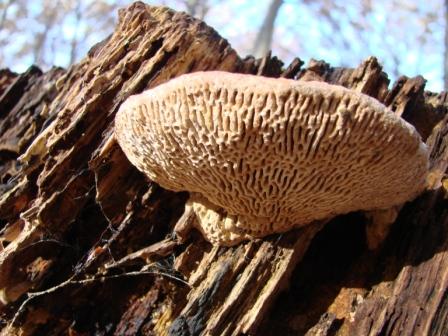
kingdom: Fungi
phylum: Basidiomycota
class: Agaricomycetes
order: Polyporales
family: Fomitopsidaceae
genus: Daedalea
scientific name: Daedalea quercina
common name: ege-labyrintsvamp
